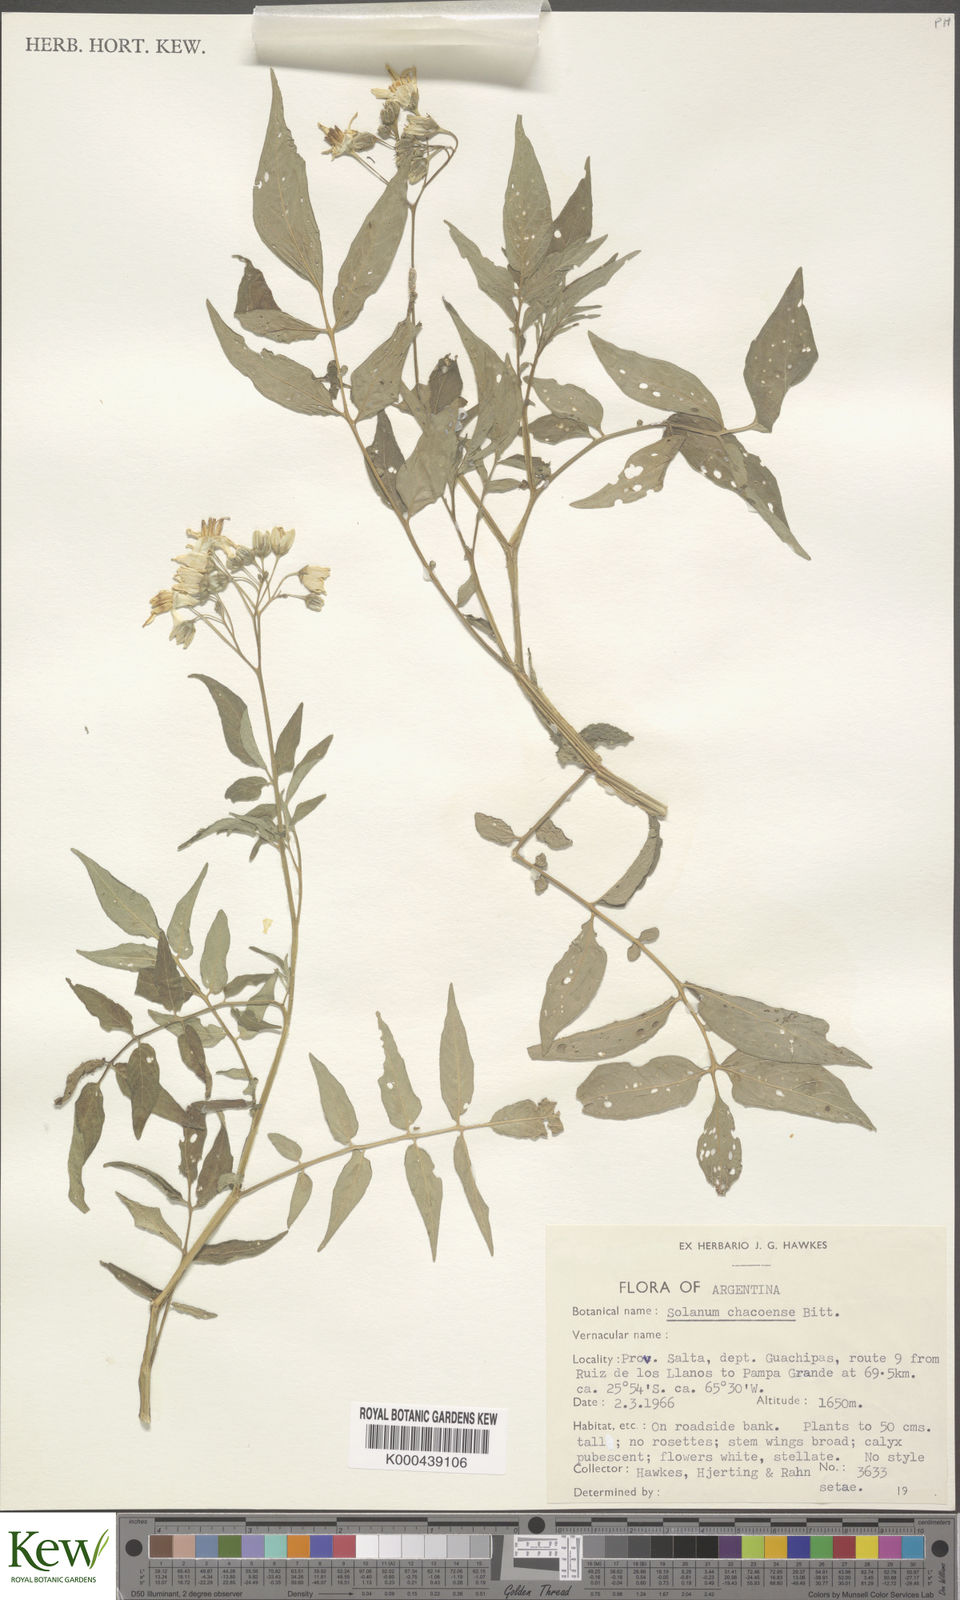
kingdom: Plantae
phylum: Tracheophyta
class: Magnoliopsida
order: Solanales
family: Solanaceae
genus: Solanum
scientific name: Solanum chacoense
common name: Chaco potato
